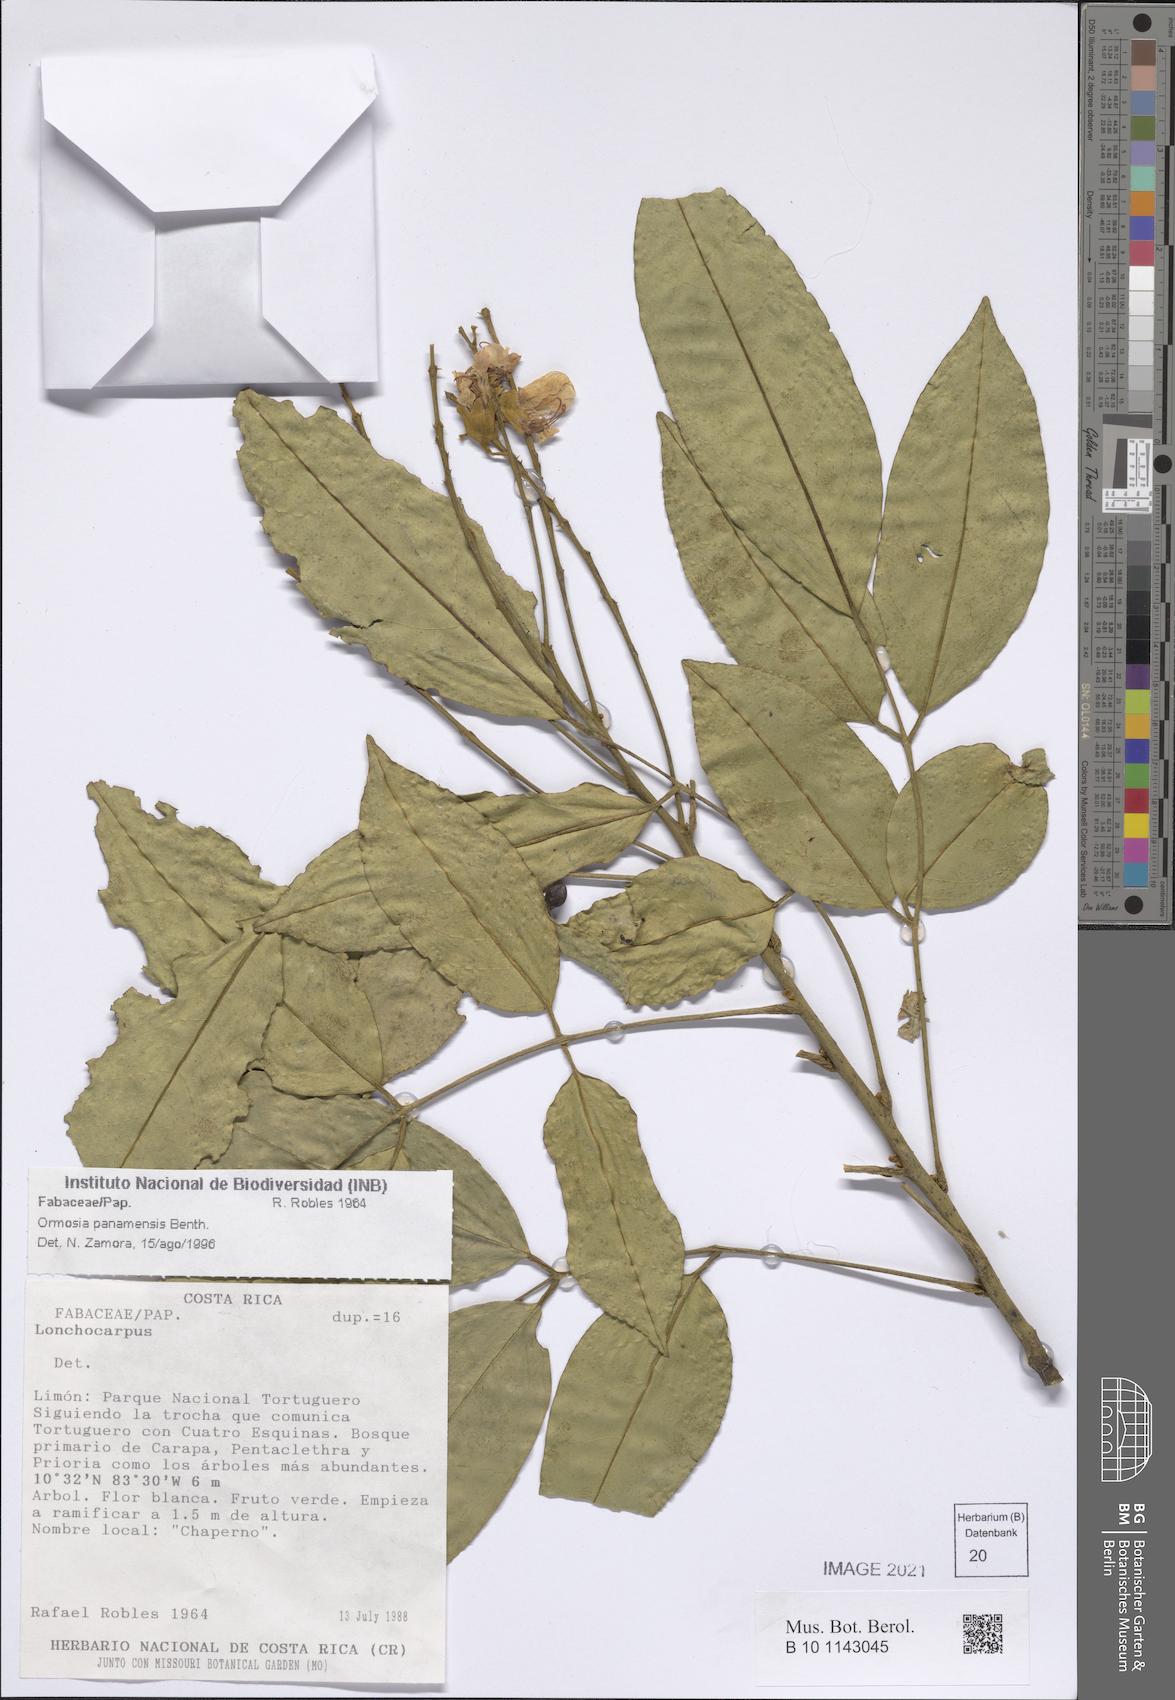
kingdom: Plantae
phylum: Tracheophyta
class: Magnoliopsida
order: Fabales
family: Fabaceae
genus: Ormosia
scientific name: Ormosia panamensis
